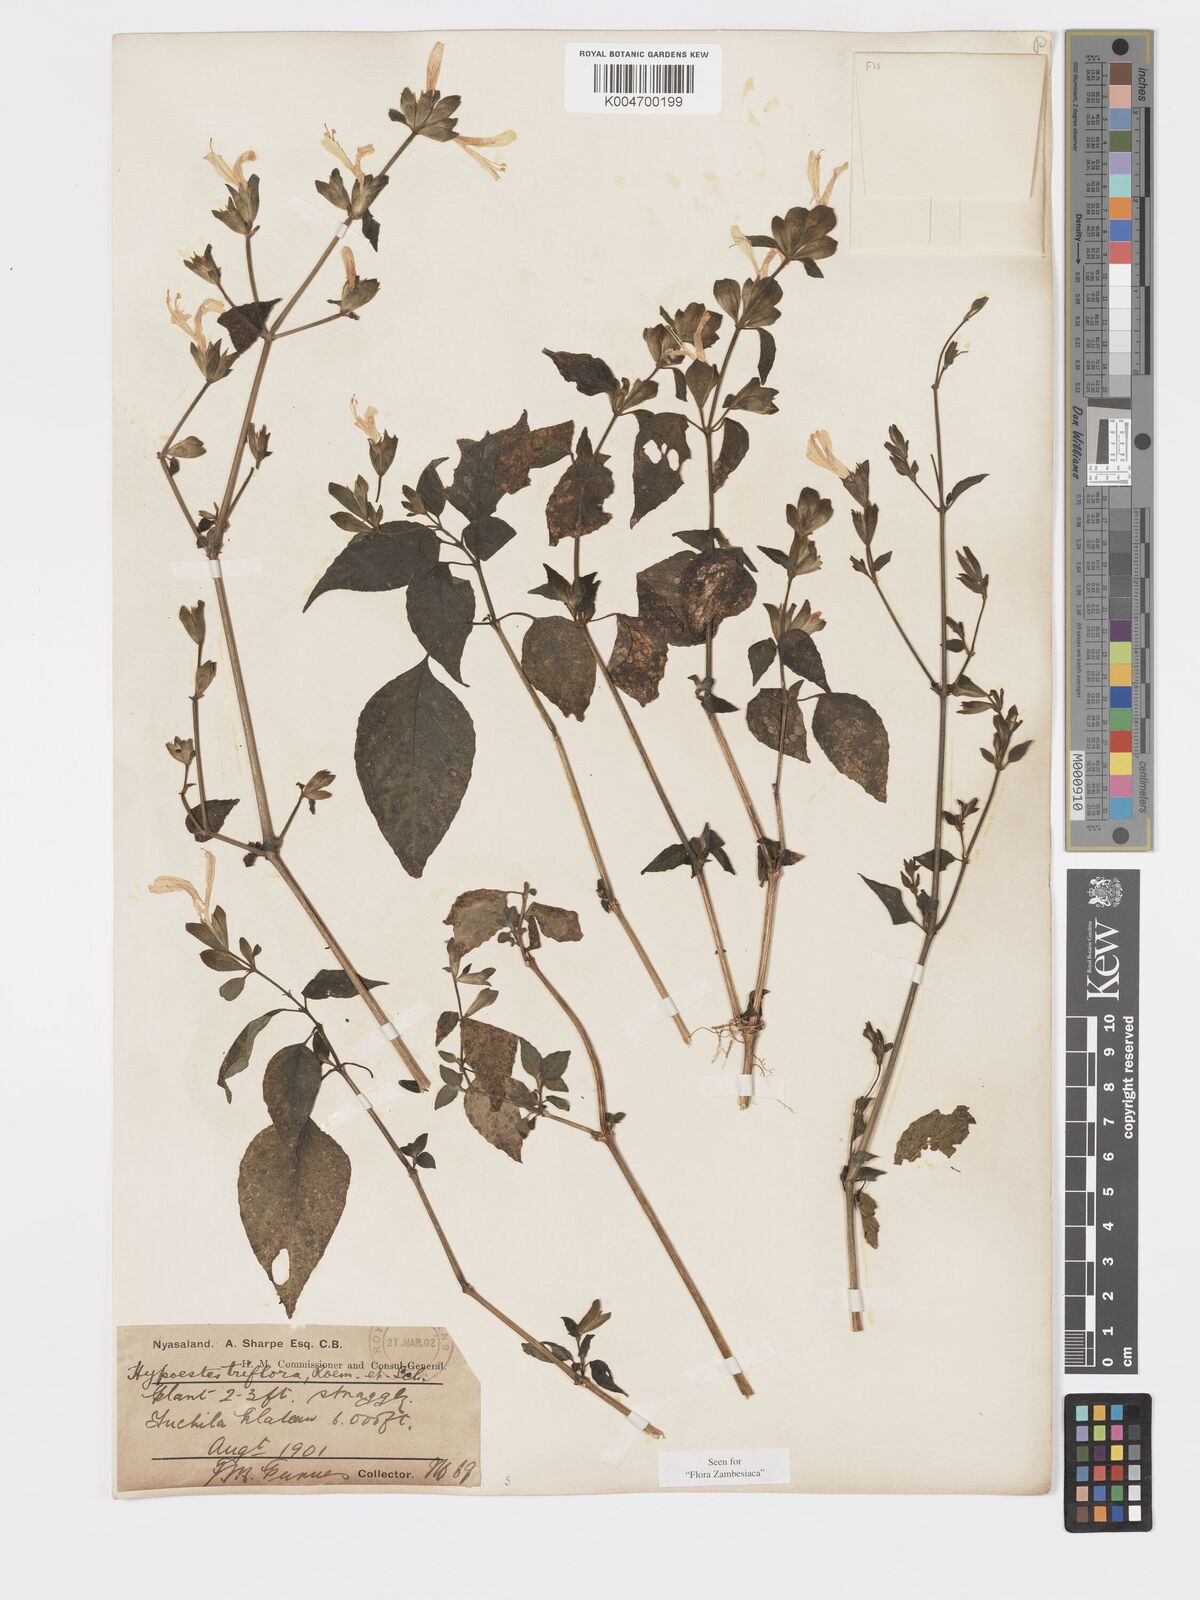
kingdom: Plantae
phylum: Tracheophyta
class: Magnoliopsida
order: Lamiales
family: Acanthaceae
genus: Hypoestes
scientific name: Hypoestes triflora
